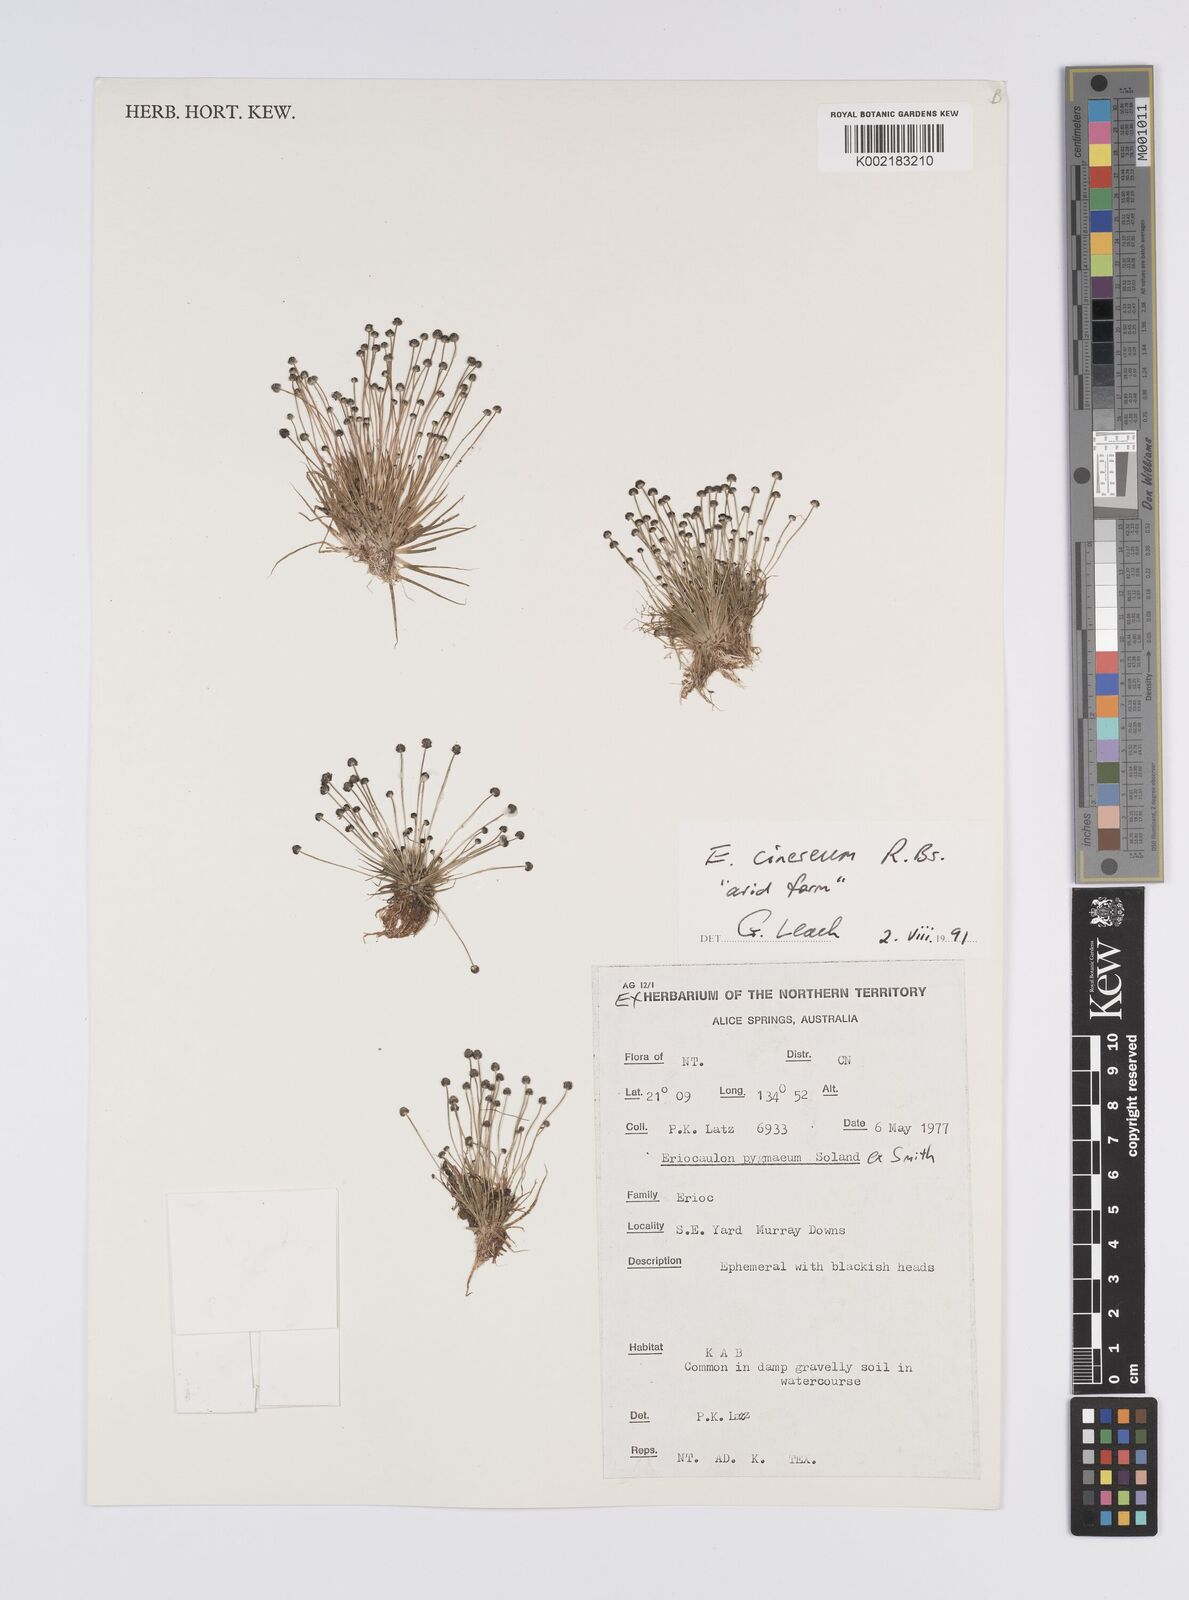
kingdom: Plantae
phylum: Tracheophyta
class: Liliopsida
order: Poales
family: Eriocaulaceae
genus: Eriocaulon
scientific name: Eriocaulon cinereum
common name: Ashy pipewort
